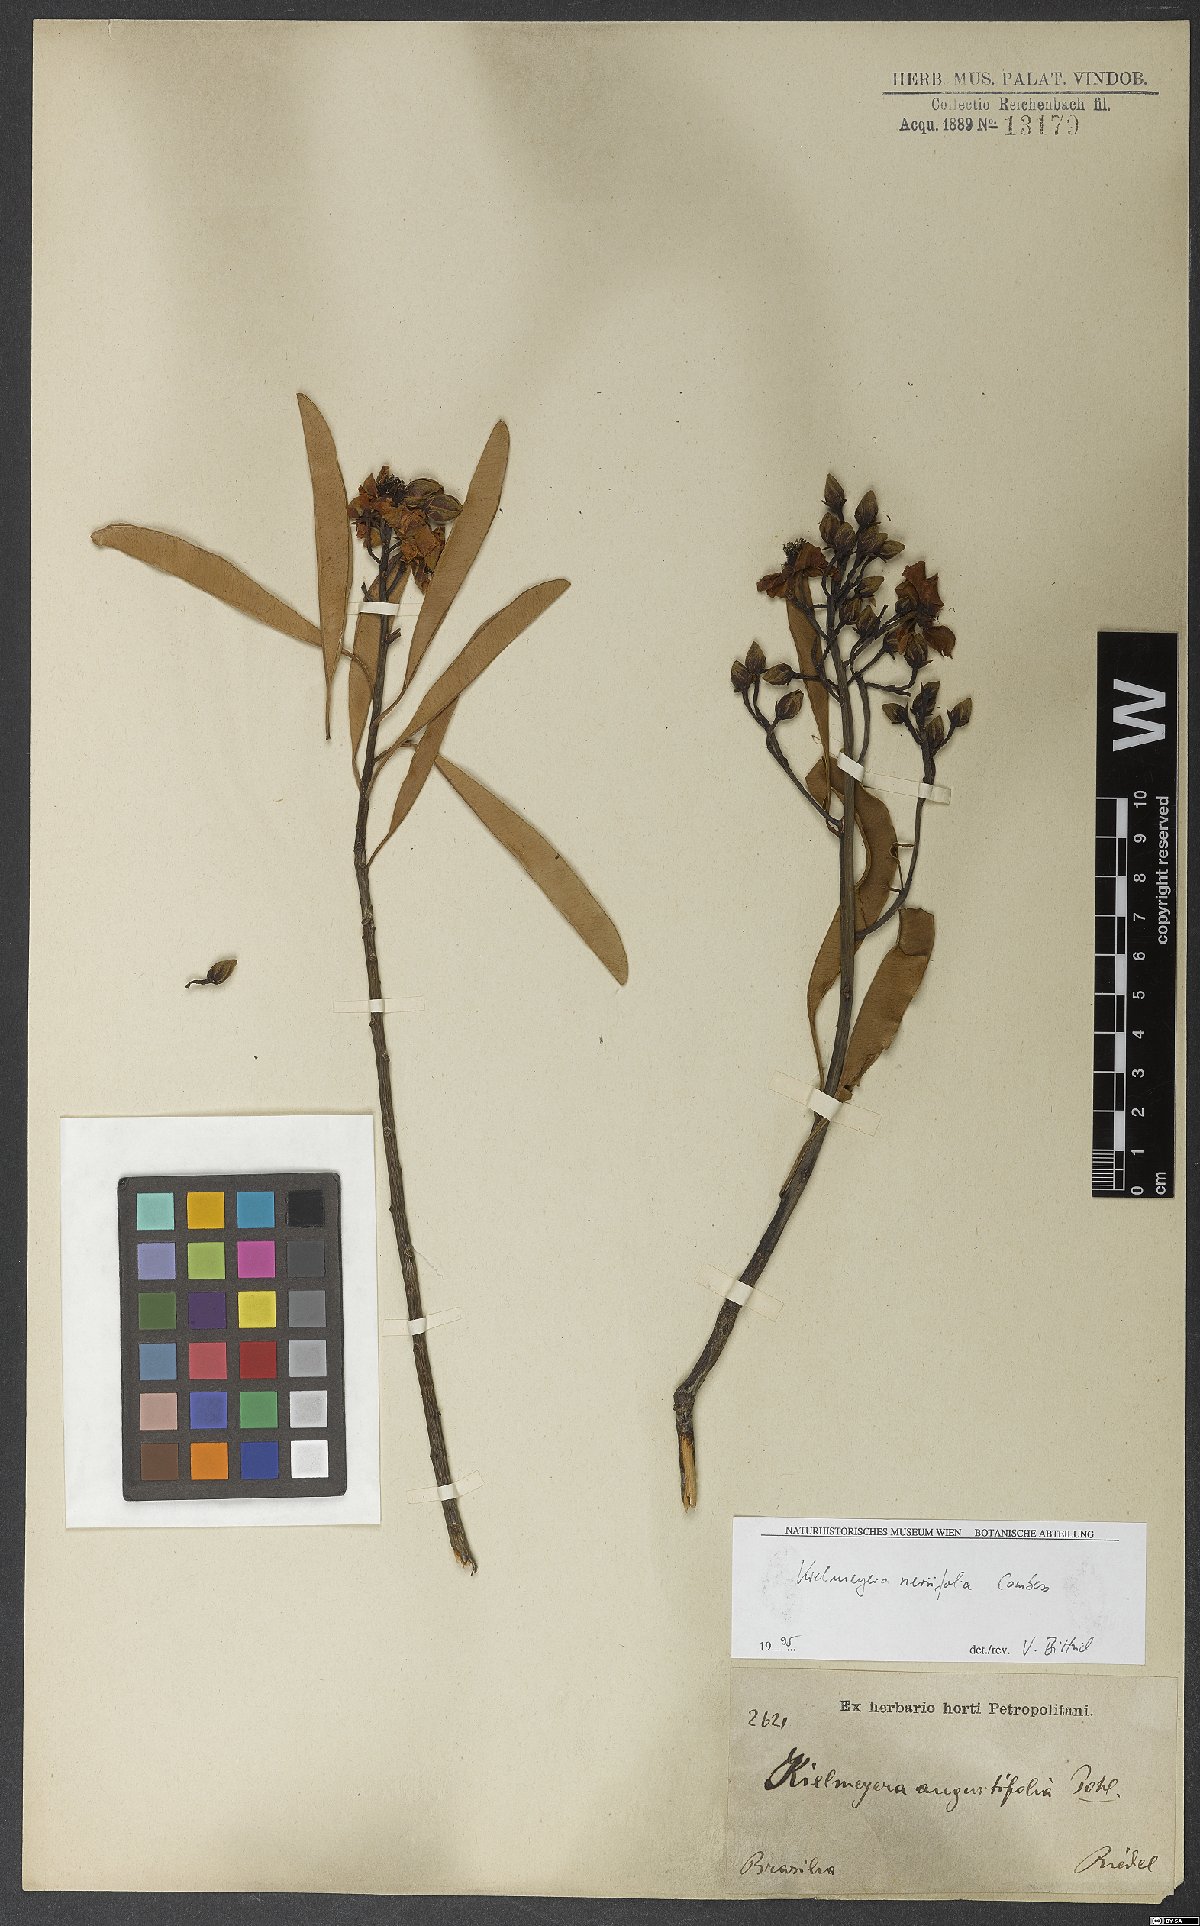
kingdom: Plantae
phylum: Tracheophyta
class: Magnoliopsida
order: Malpighiales
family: Calophyllaceae
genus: Kielmeyera
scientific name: Kielmeyera neriifolia
